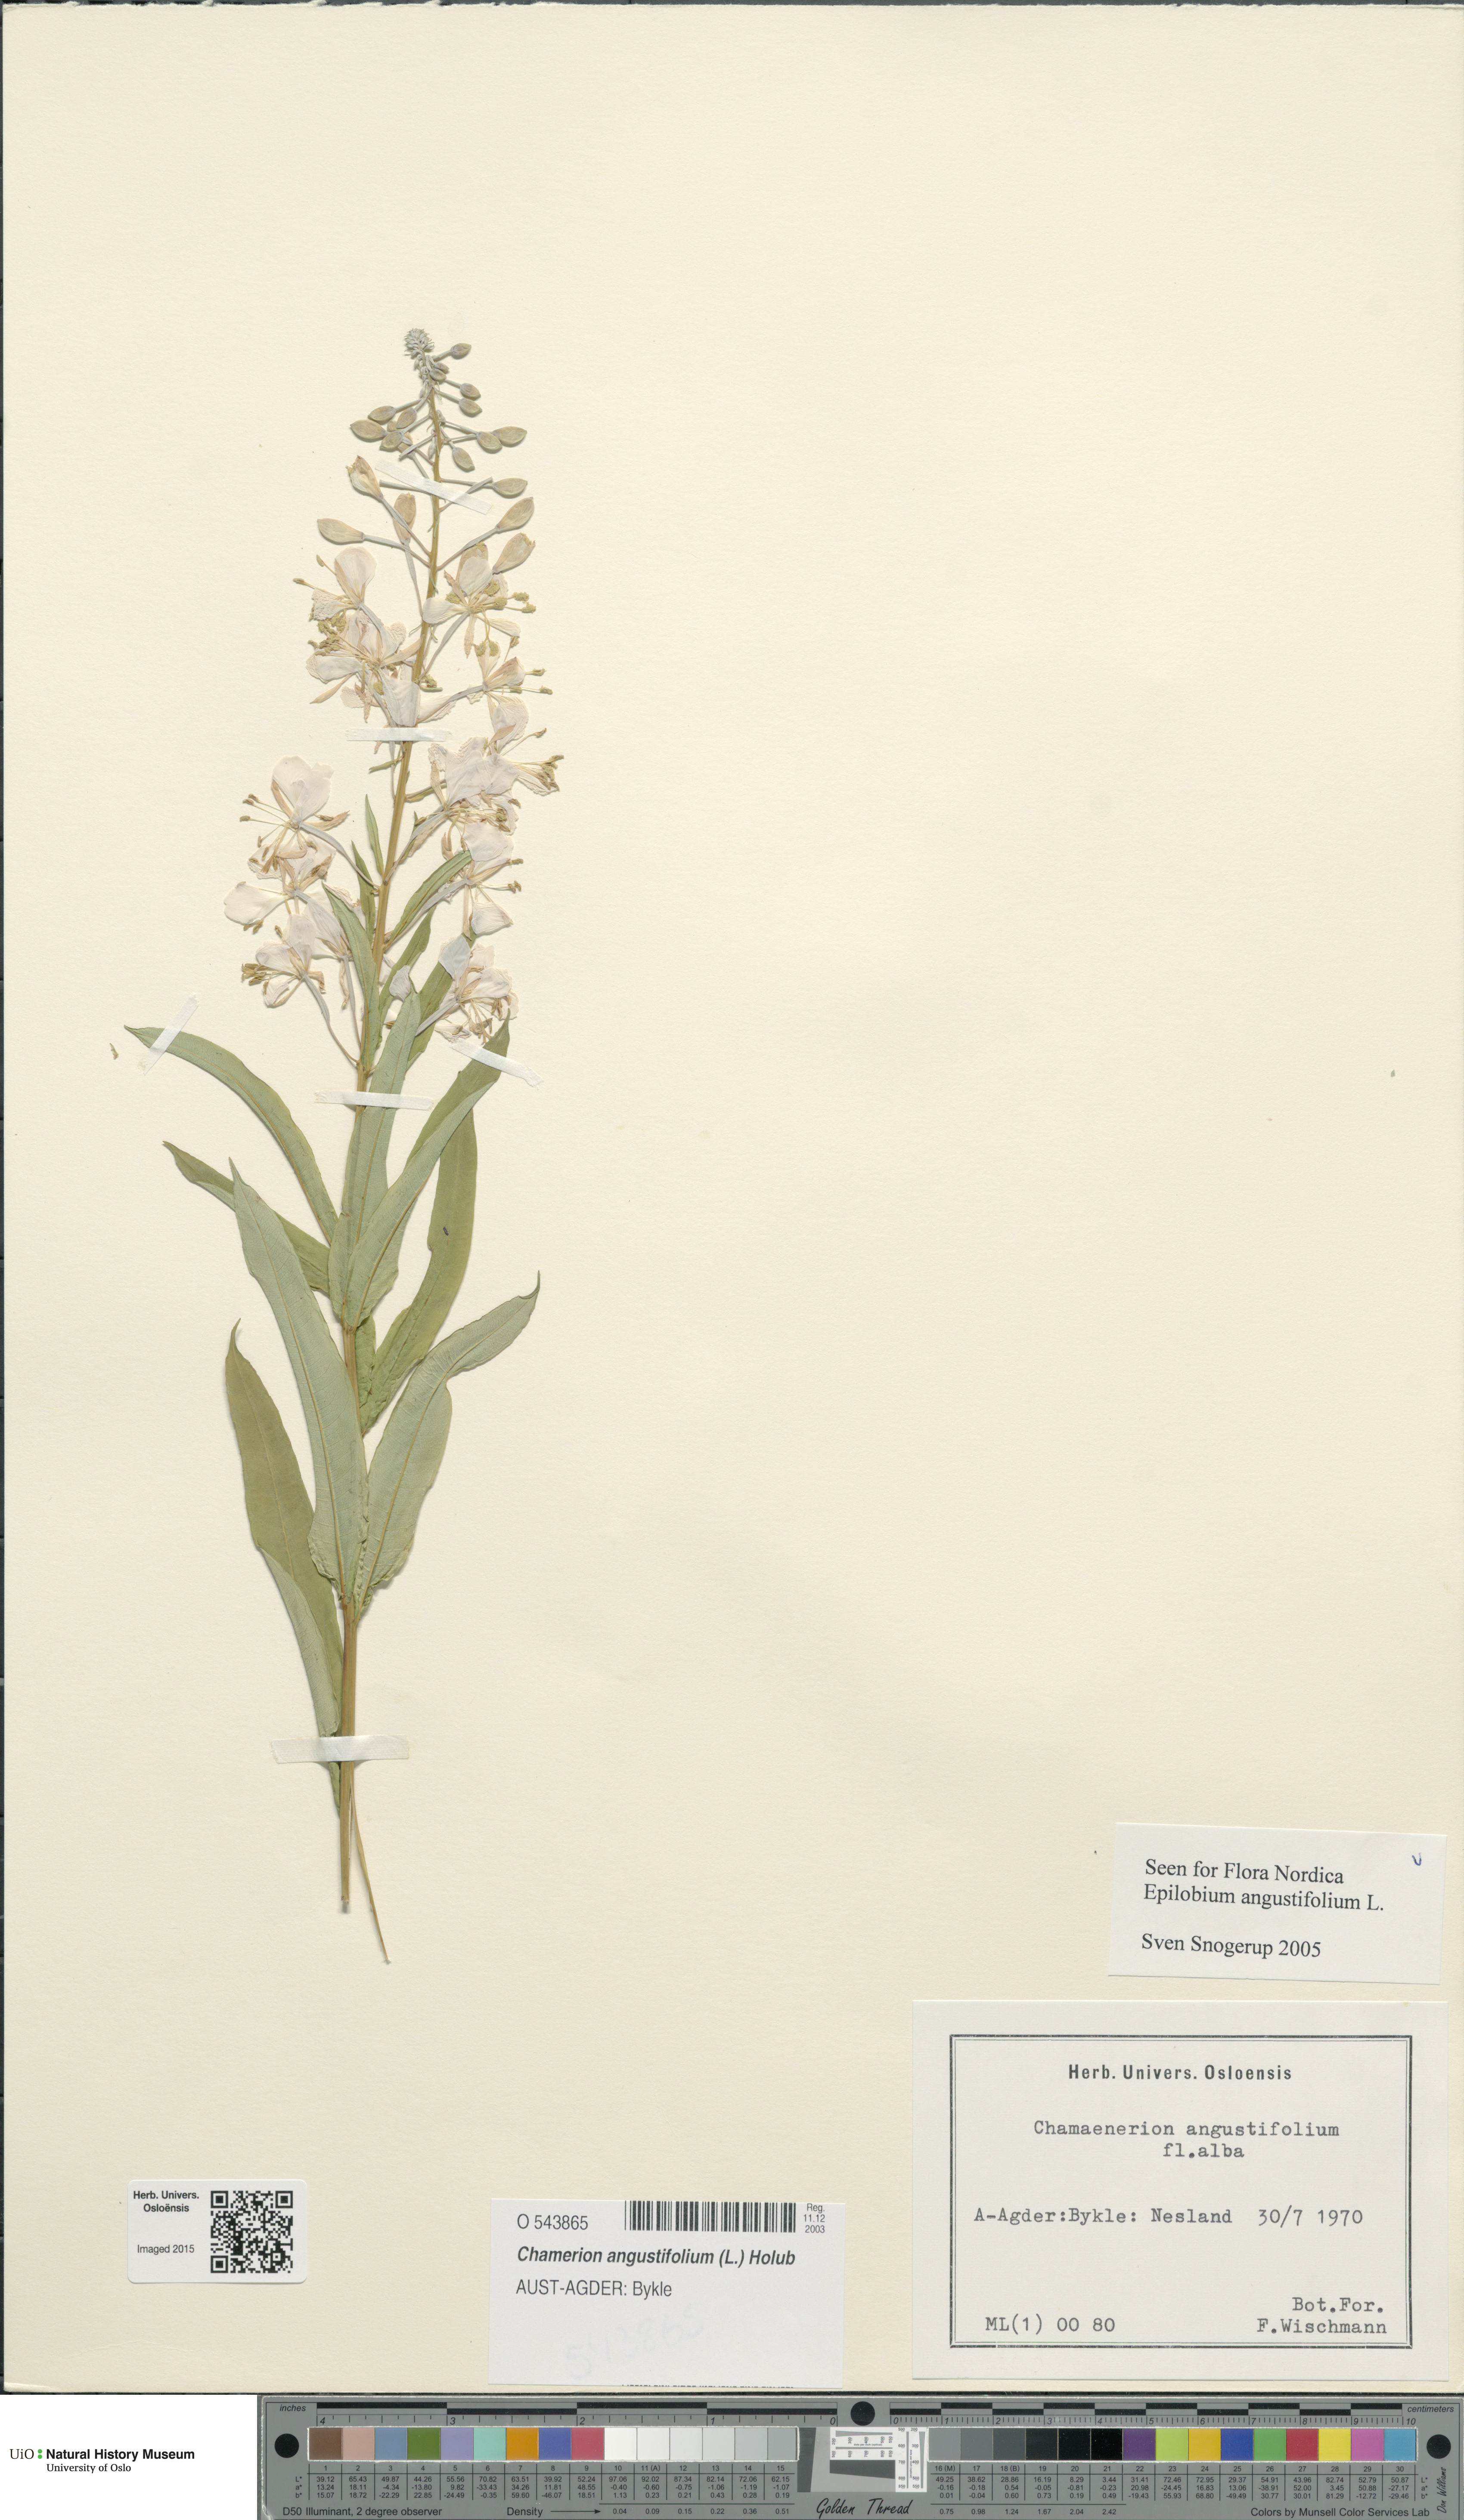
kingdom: Plantae
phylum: Tracheophyta
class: Magnoliopsida
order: Myrtales
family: Onagraceae
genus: Chamaenerion
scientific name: Chamaenerion angustifolium
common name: Fireweed
